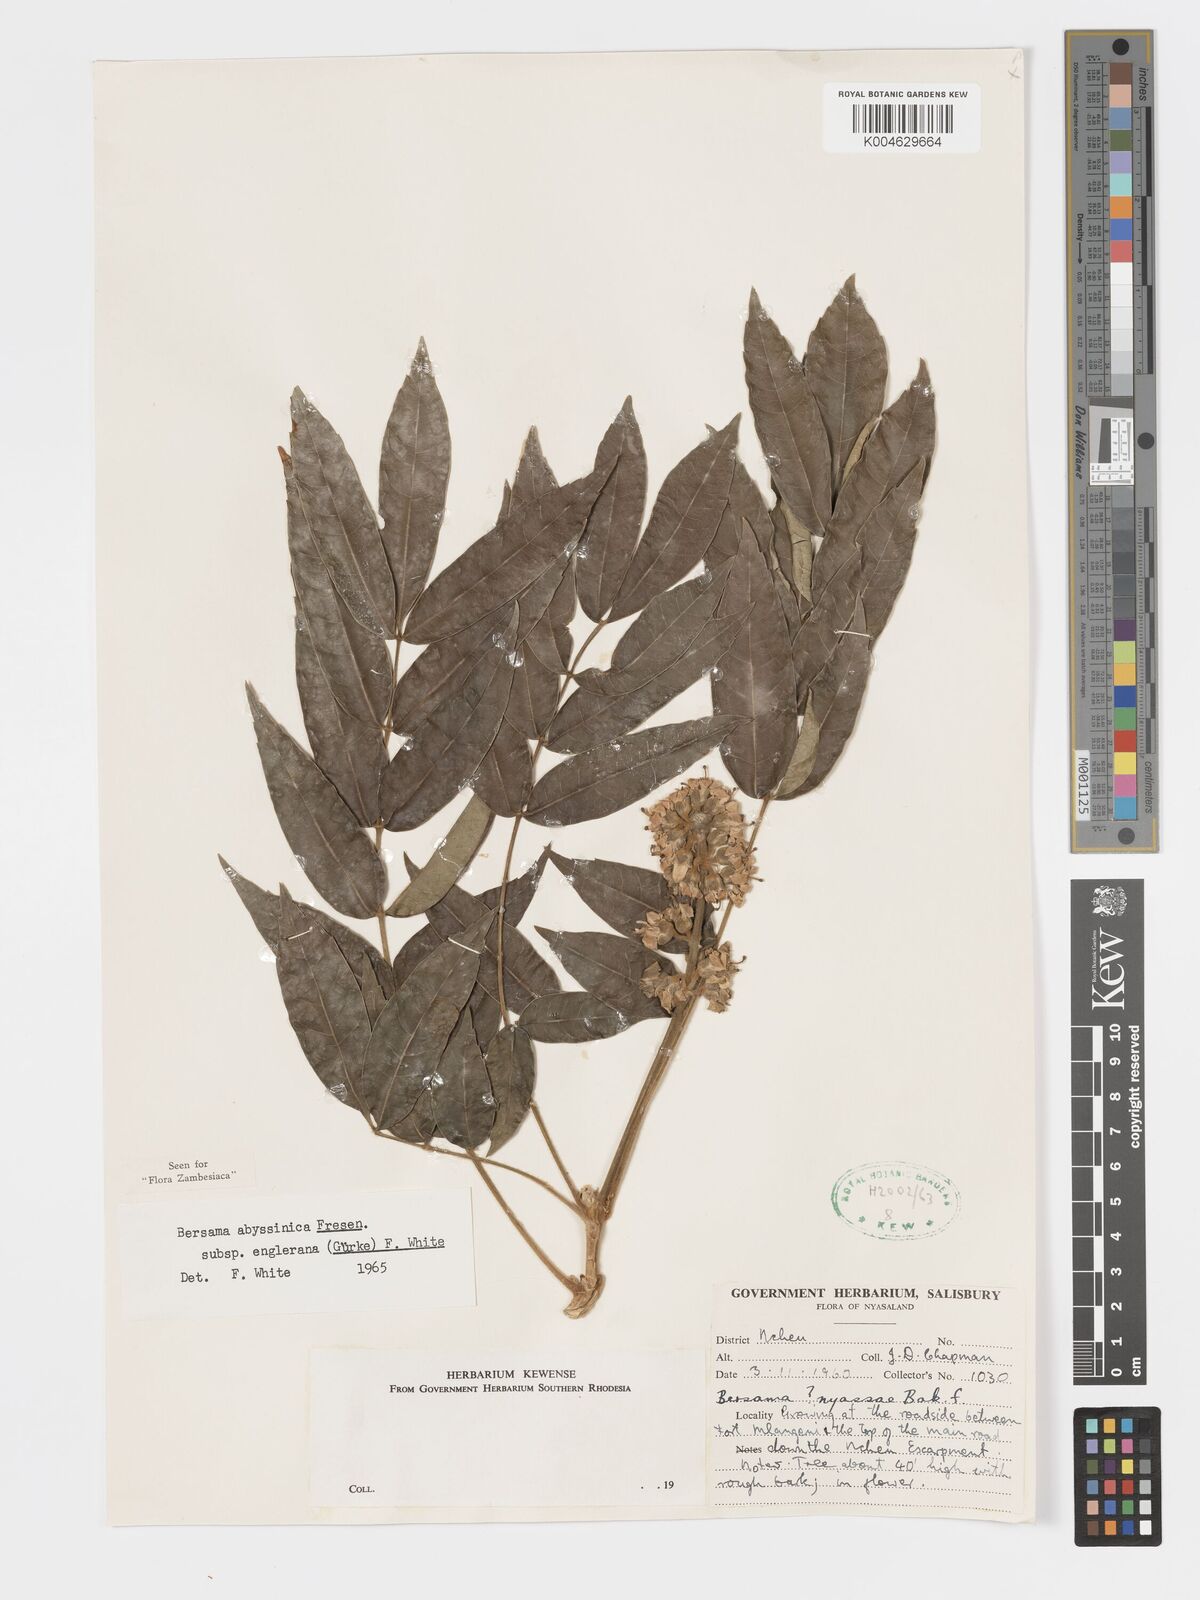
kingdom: Plantae
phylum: Tracheophyta
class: Magnoliopsida
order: Geraniales
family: Melianthaceae
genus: Bersama
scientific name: Bersama abyssinica
